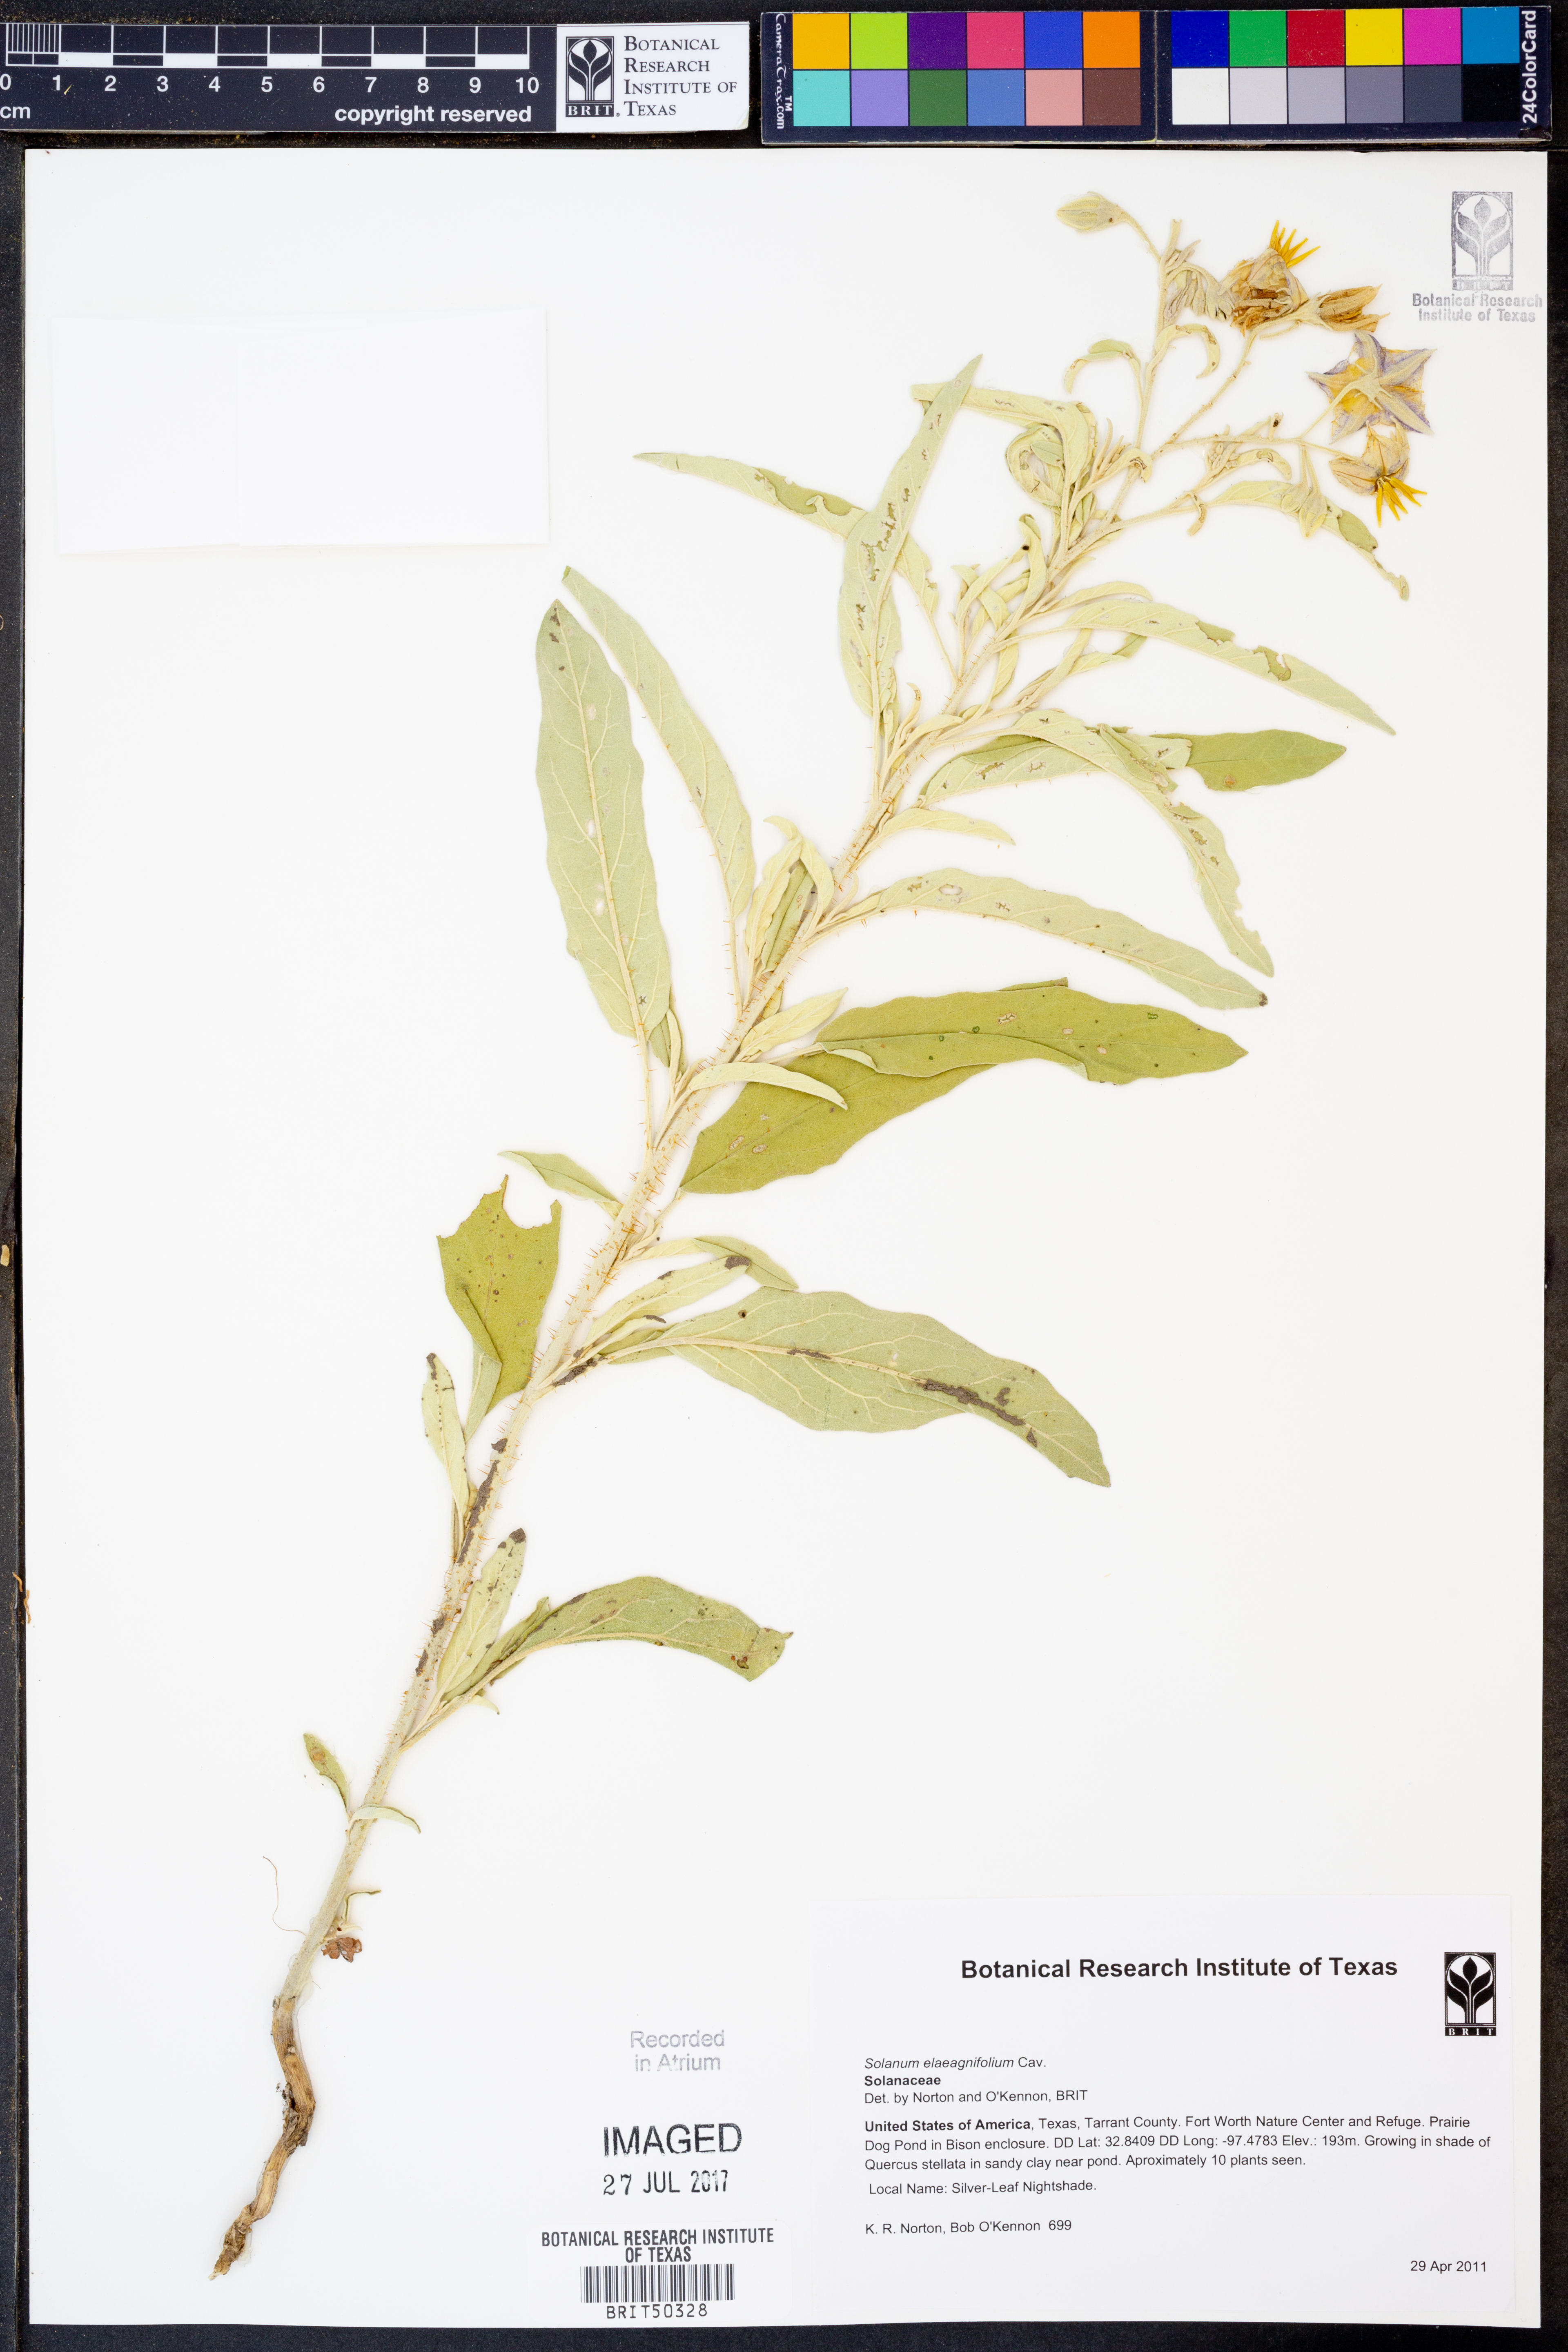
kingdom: Plantae
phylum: Tracheophyta
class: Magnoliopsida
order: Solanales
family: Solanaceae
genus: Solanum
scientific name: Solanum elaeagnifolium
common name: Silverleaf nightshade
